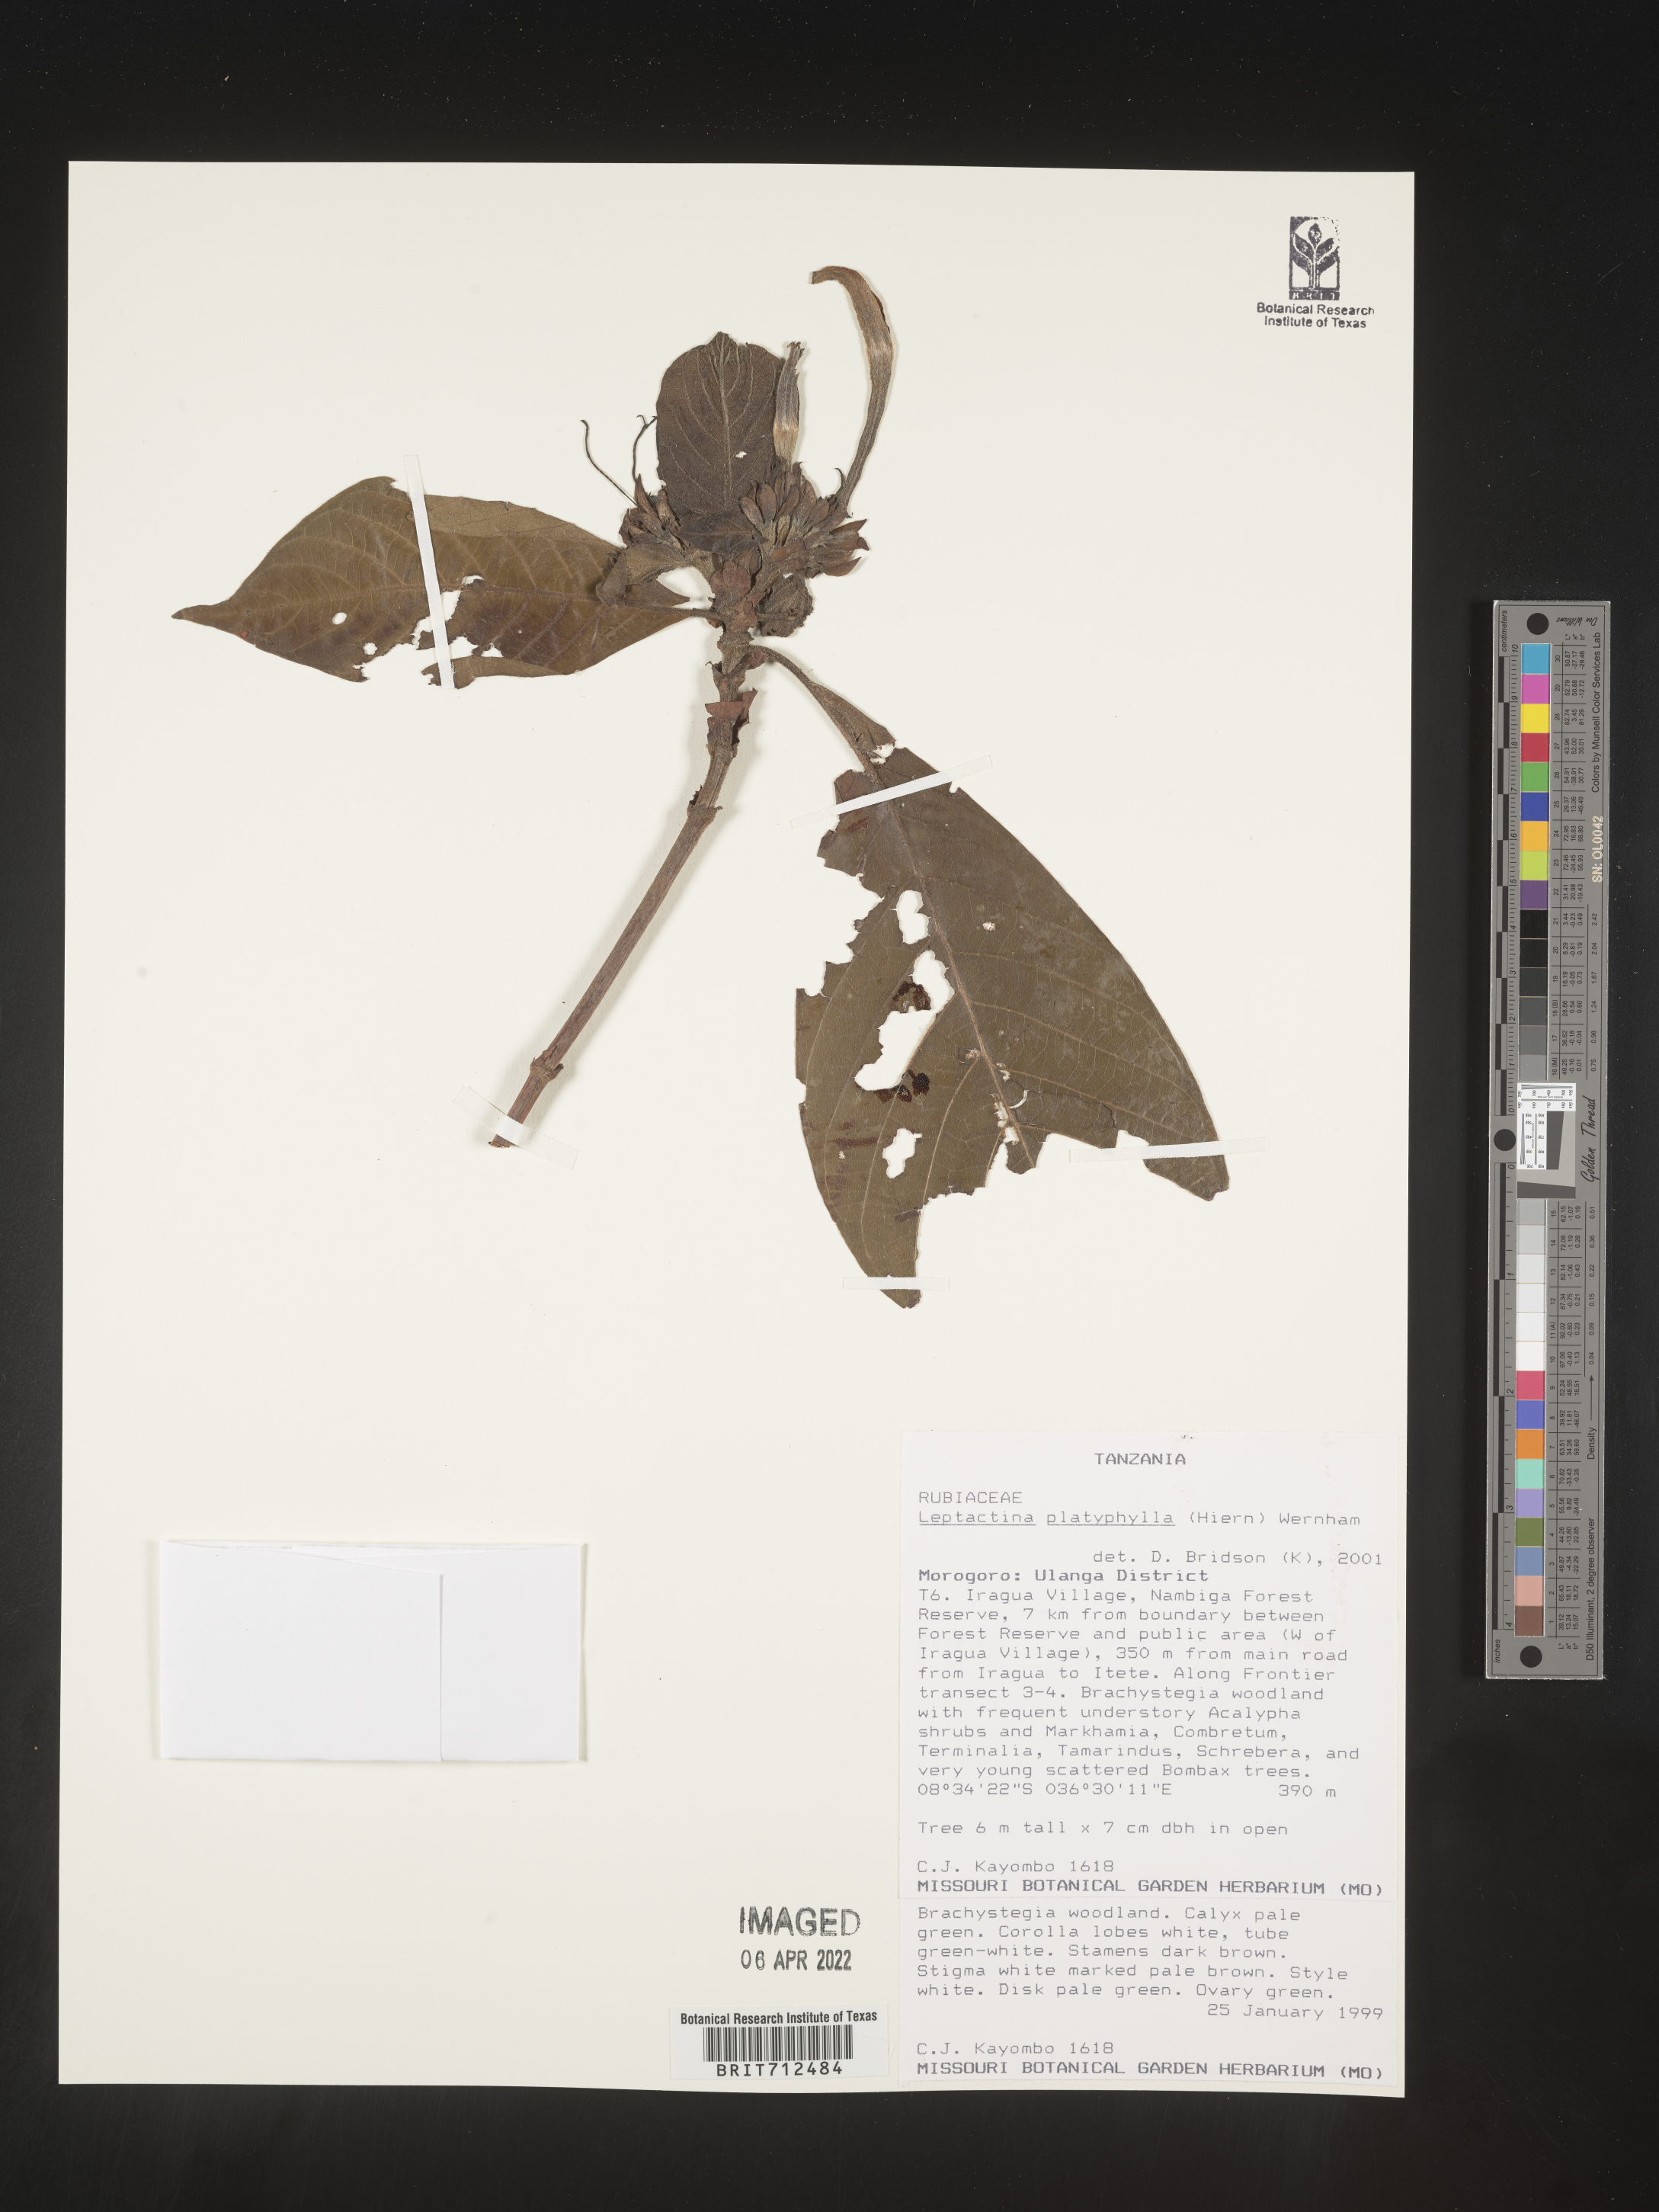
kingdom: Plantae
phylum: Tracheophyta
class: Magnoliopsida
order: Gentianales
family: Rubiaceae
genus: Leptactinia
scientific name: Leptactinia
